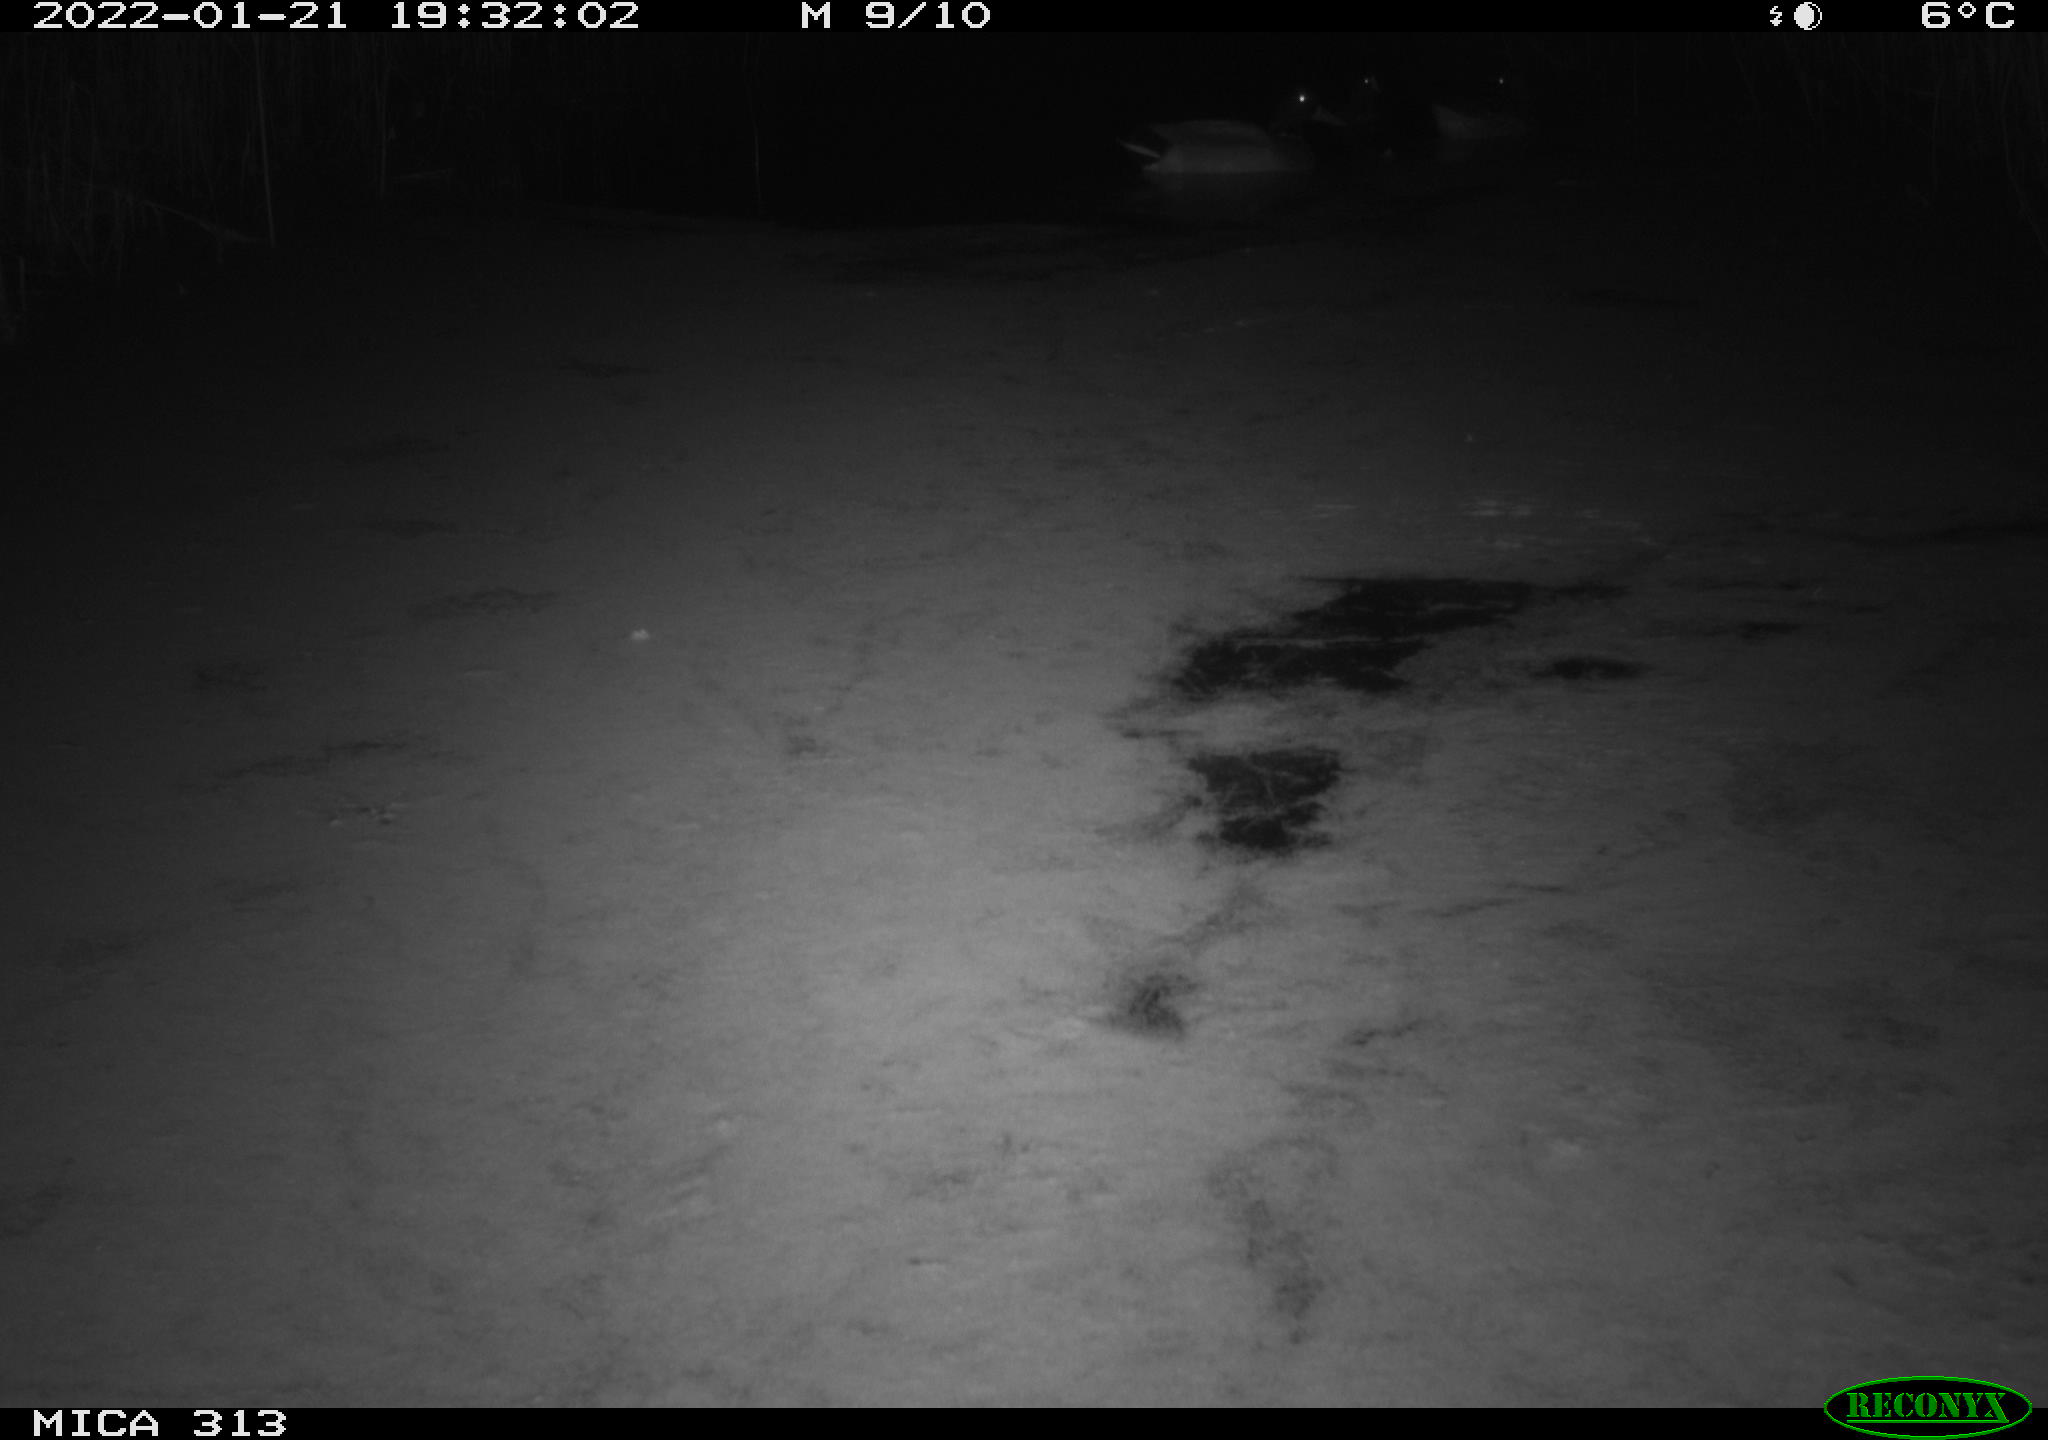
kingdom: Animalia
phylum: Chordata
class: Aves
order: Anseriformes
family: Anatidae
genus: Anas
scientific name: Anas
